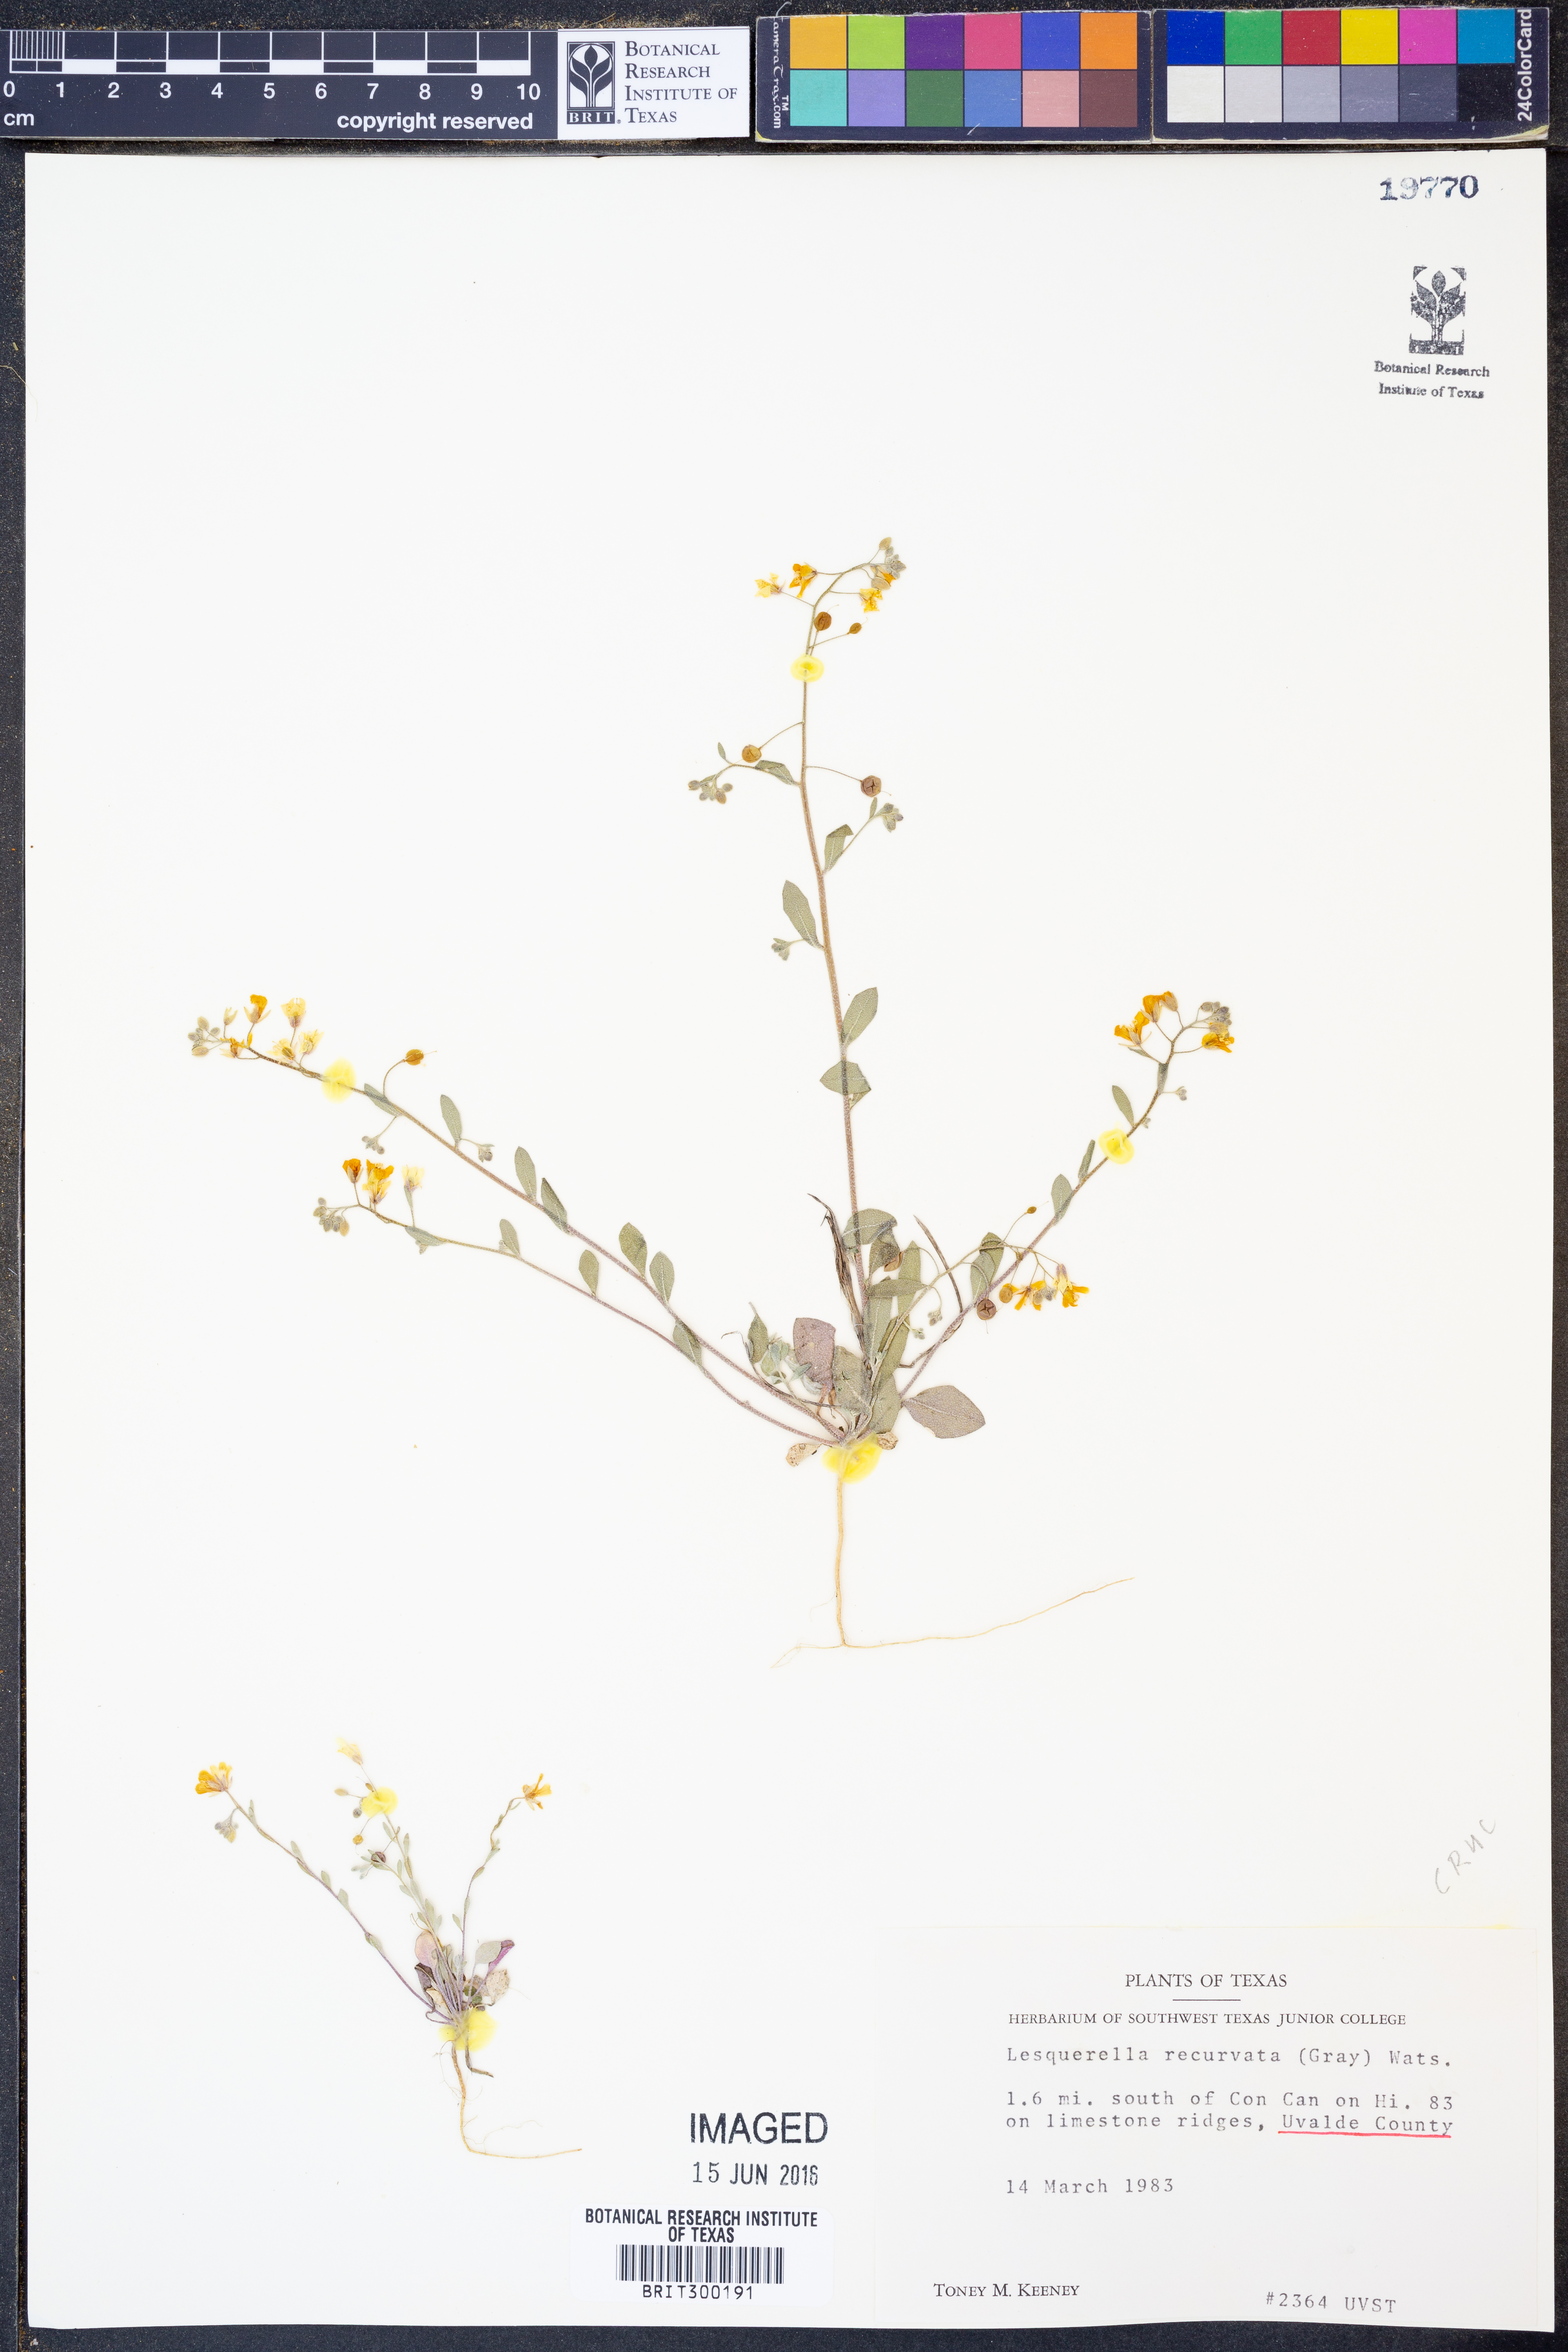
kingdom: Plantae
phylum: Tracheophyta
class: Magnoliopsida
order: Brassicales
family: Brassicaceae
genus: Physaria
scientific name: Physaria recurvata
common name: Gaslight bladderpod
